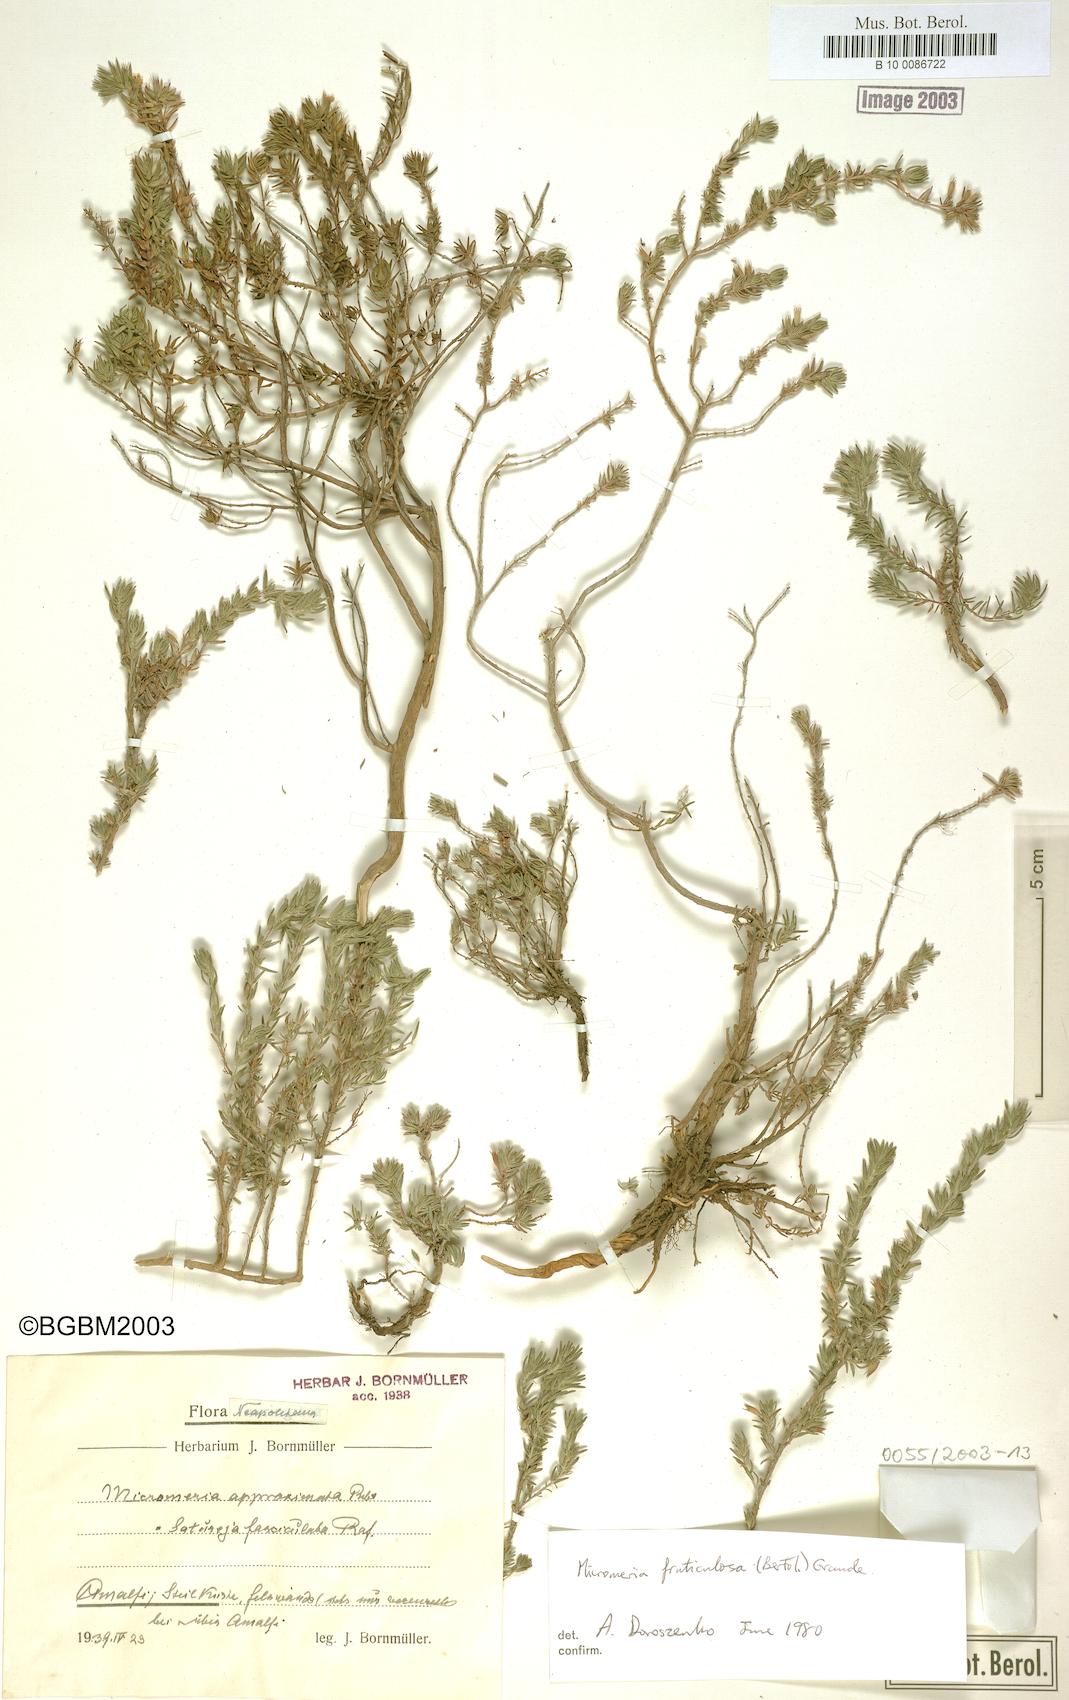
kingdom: Plantae
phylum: Tracheophyta
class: Magnoliopsida
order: Lamiales
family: Lamiaceae
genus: Micromeria
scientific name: Micromeria graeca
